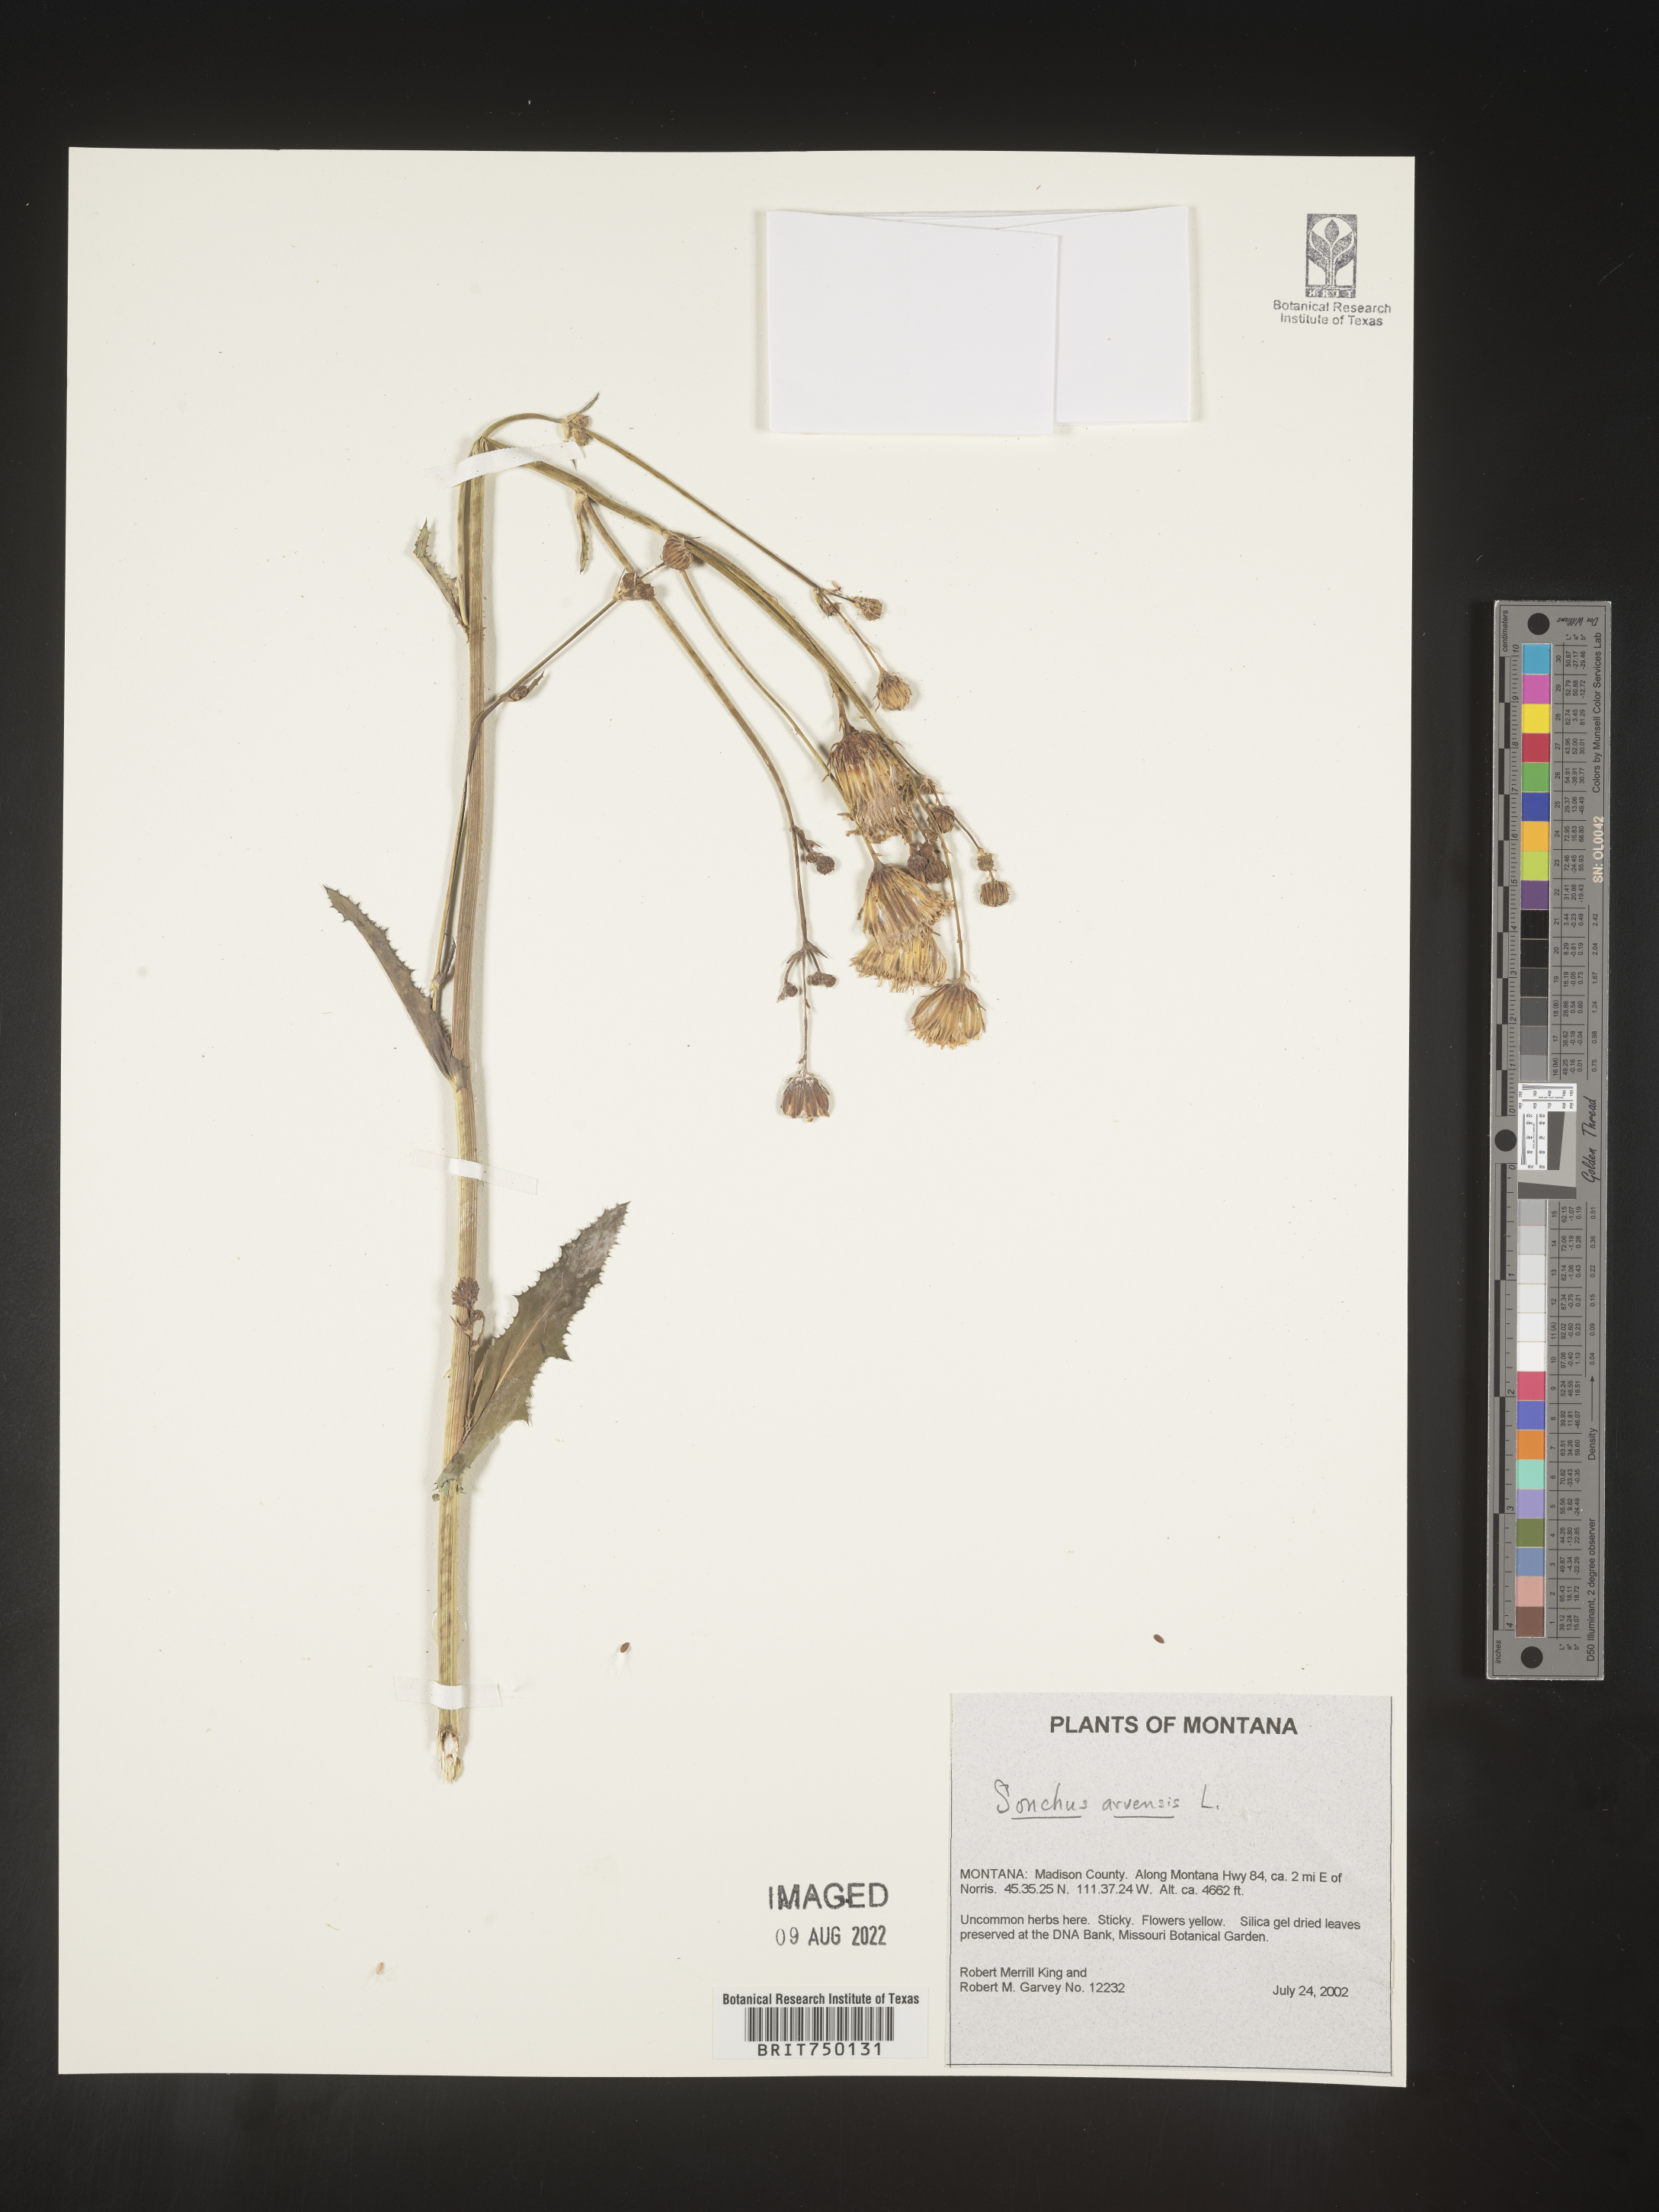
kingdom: Plantae
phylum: Tracheophyta
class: Magnoliopsida
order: Asterales
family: Asteraceae
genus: Sonchus
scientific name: Sonchus arvensis
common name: Perennial sow-thistle
